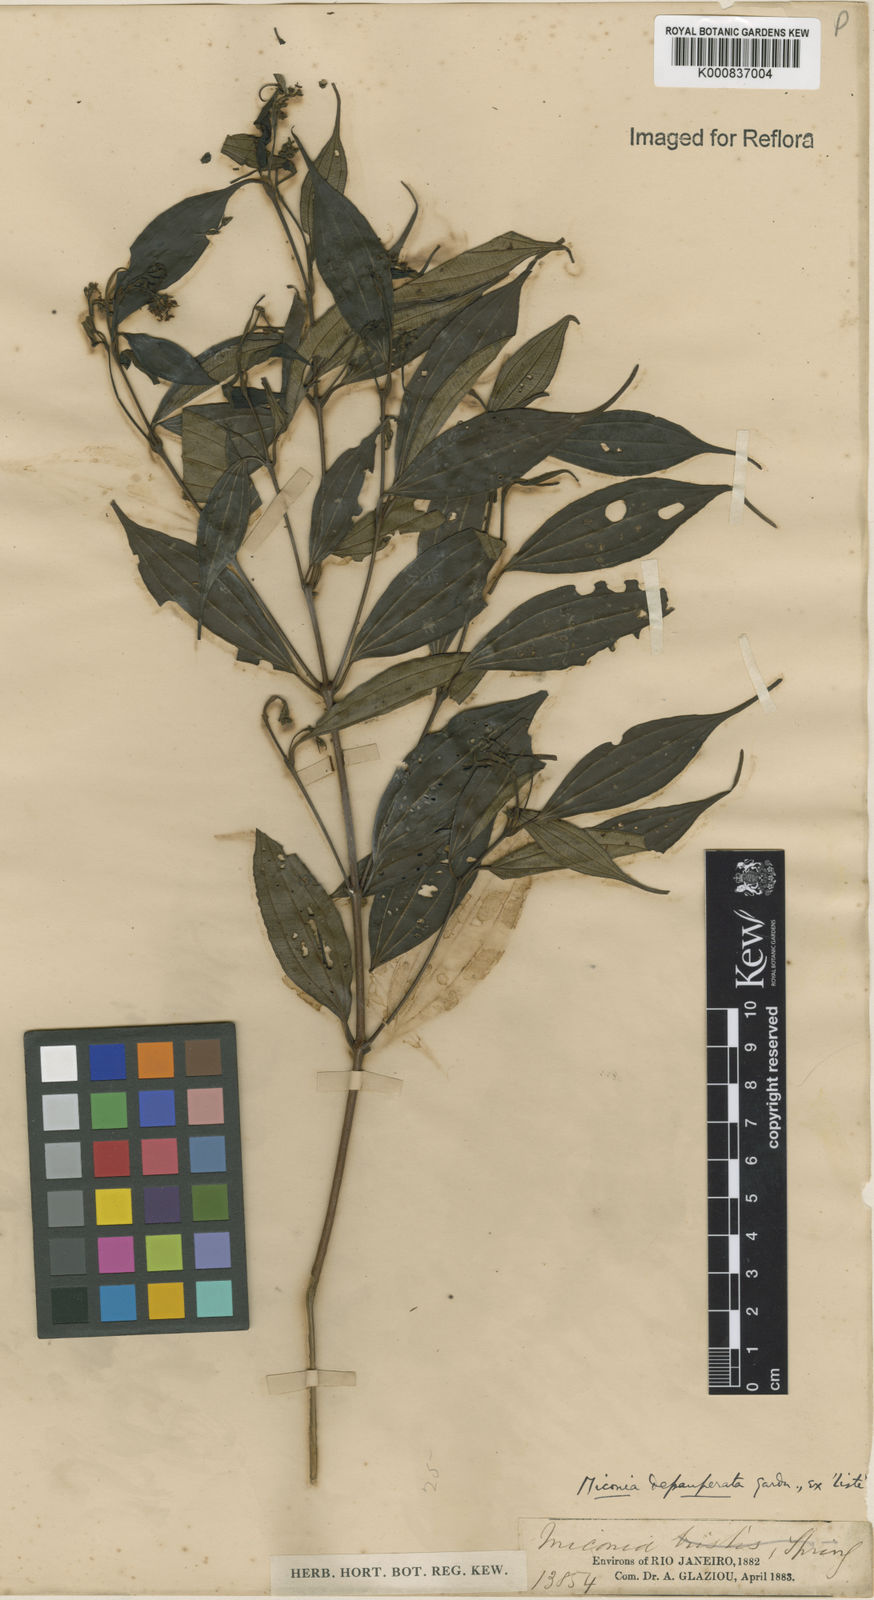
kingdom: Plantae
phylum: Tracheophyta
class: Magnoliopsida
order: Myrtales
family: Melastomataceae
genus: Miconia
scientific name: Miconia depauperata
